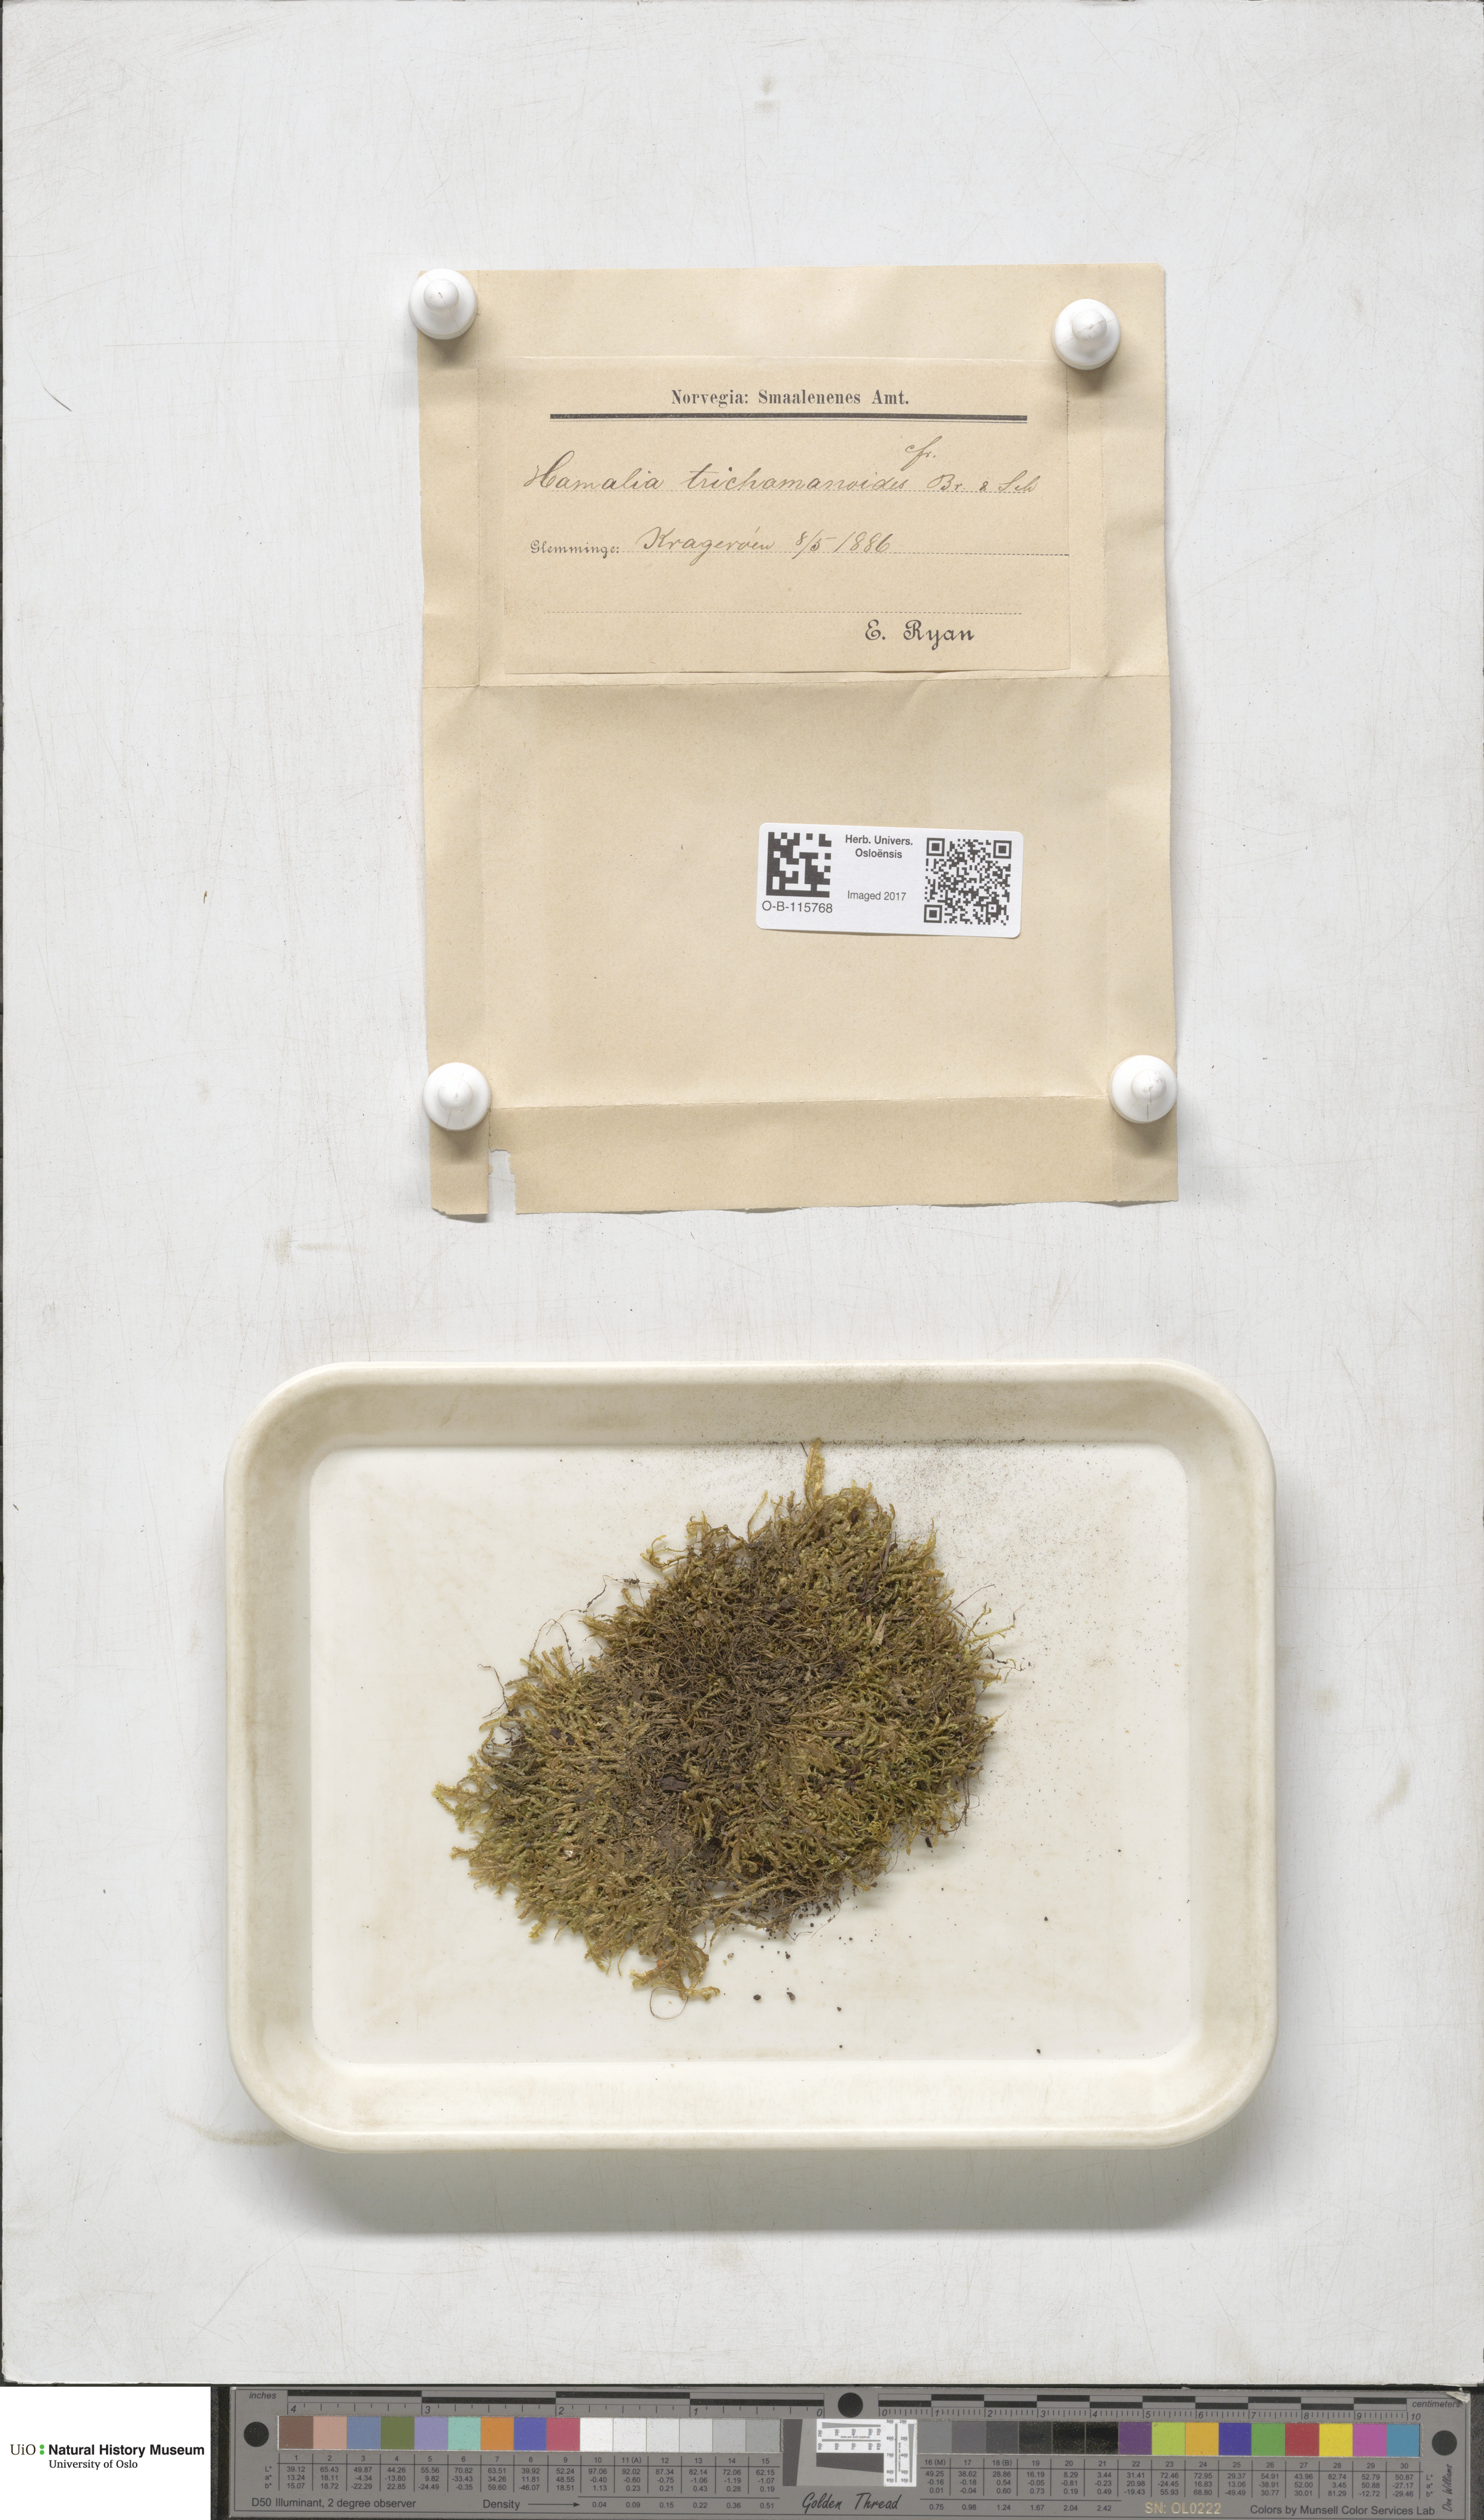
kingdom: Plantae
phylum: Bryophyta
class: Bryopsida
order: Hypnales
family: Neckeraceae
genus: Homalia
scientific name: Homalia trichomanoides
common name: Lime homalia moss
